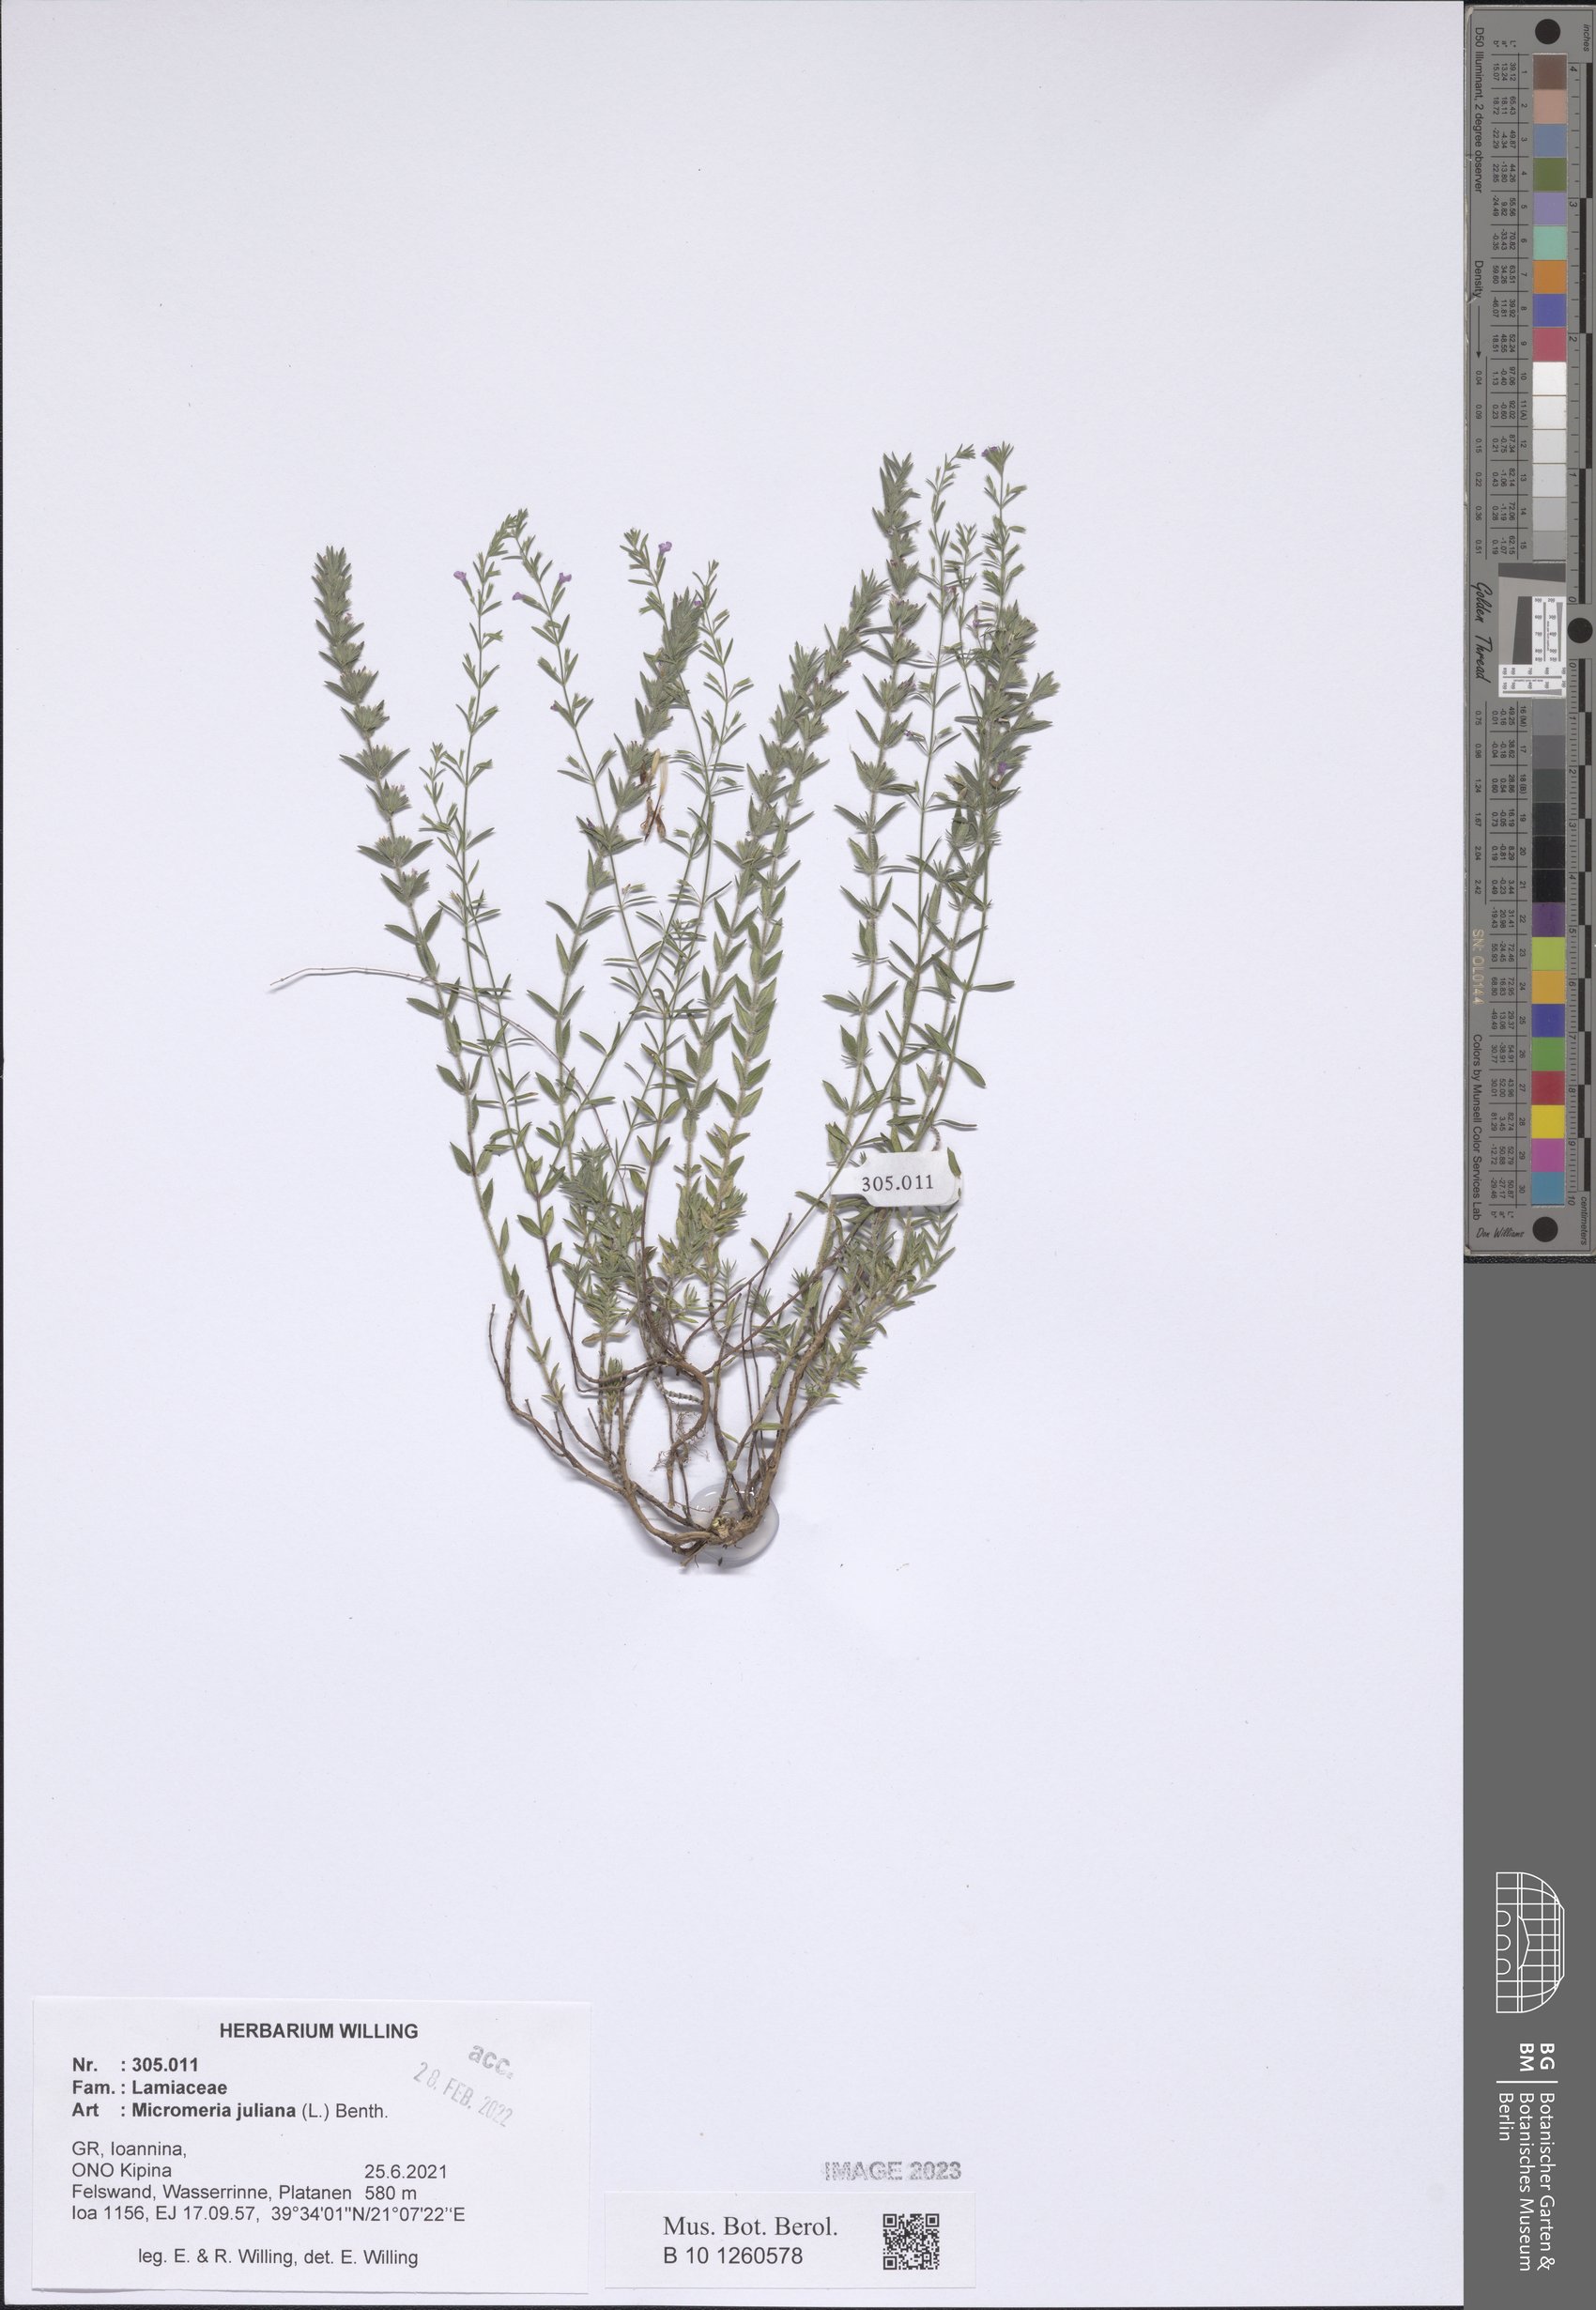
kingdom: Plantae
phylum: Tracheophyta
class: Magnoliopsida
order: Lamiales
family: Lamiaceae
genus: Micromeria
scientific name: Micromeria juliana
